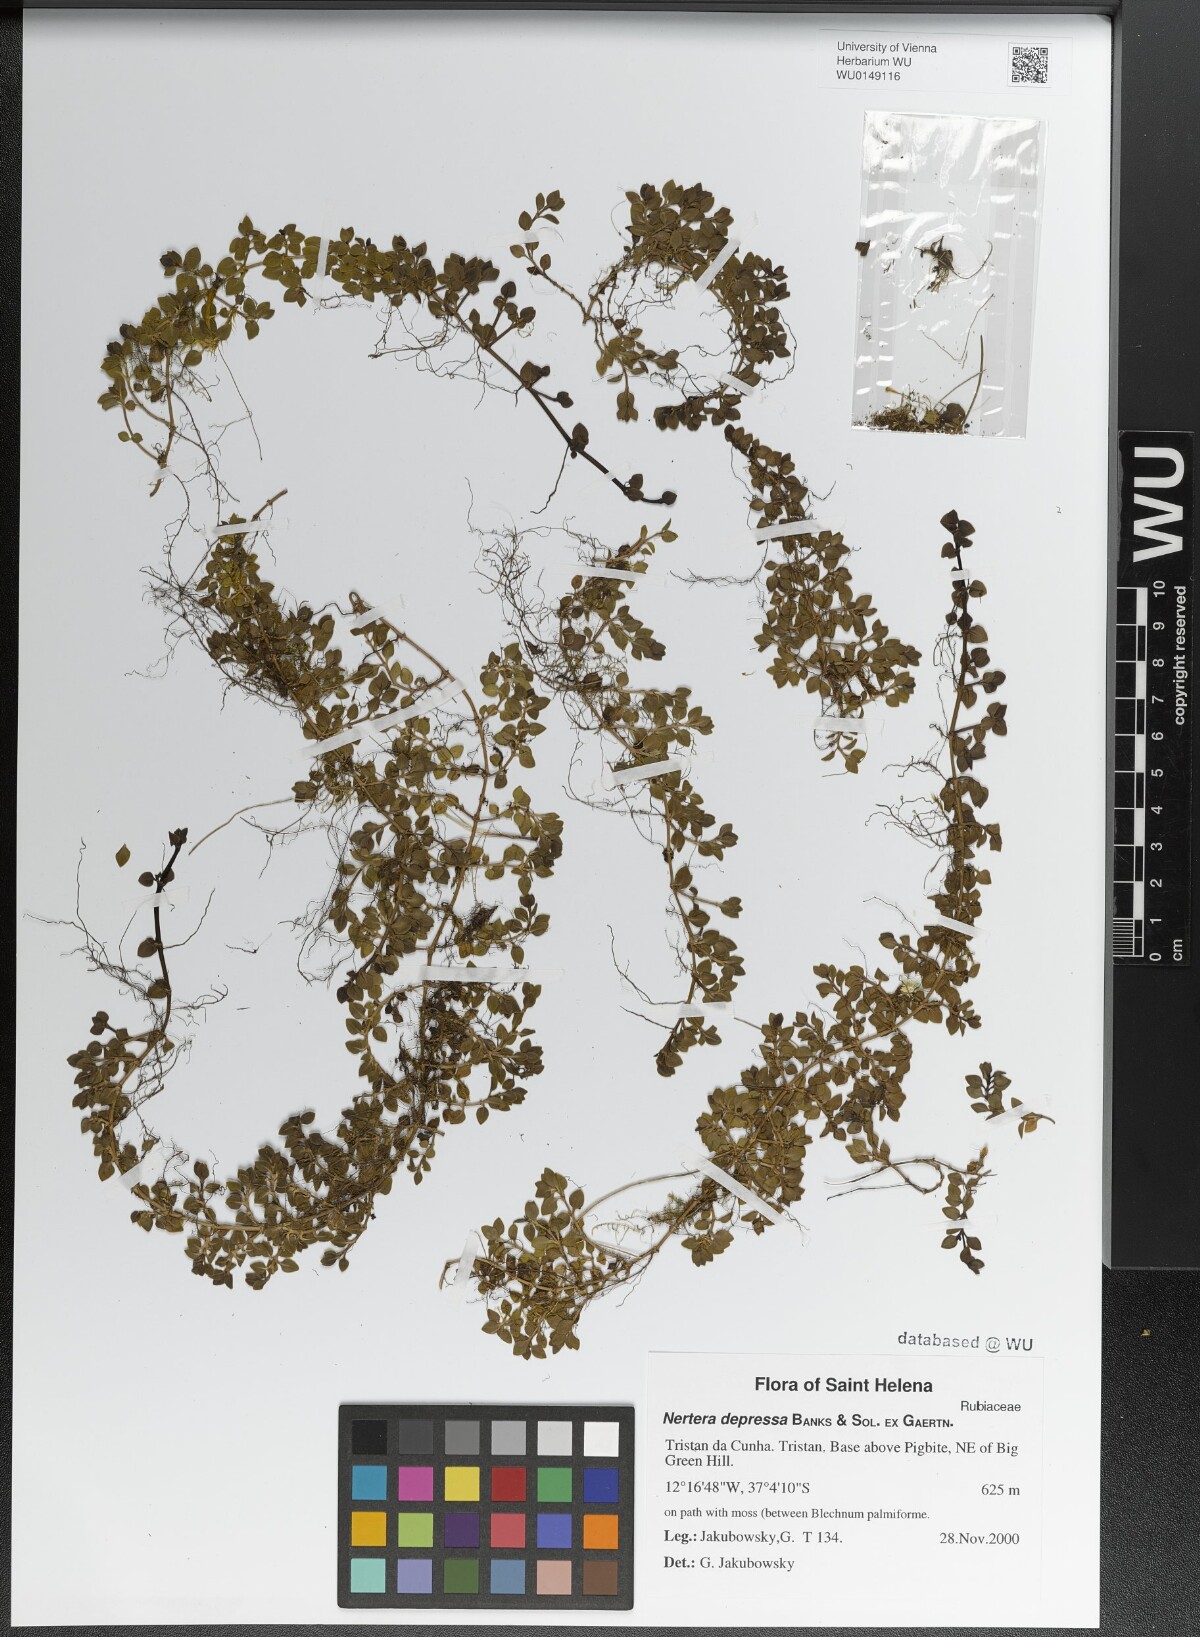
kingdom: Plantae
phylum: Tracheophyta
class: Magnoliopsida
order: Gentianales
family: Rubiaceae
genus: Nertera
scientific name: Nertera granadensis
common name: Beadplant
